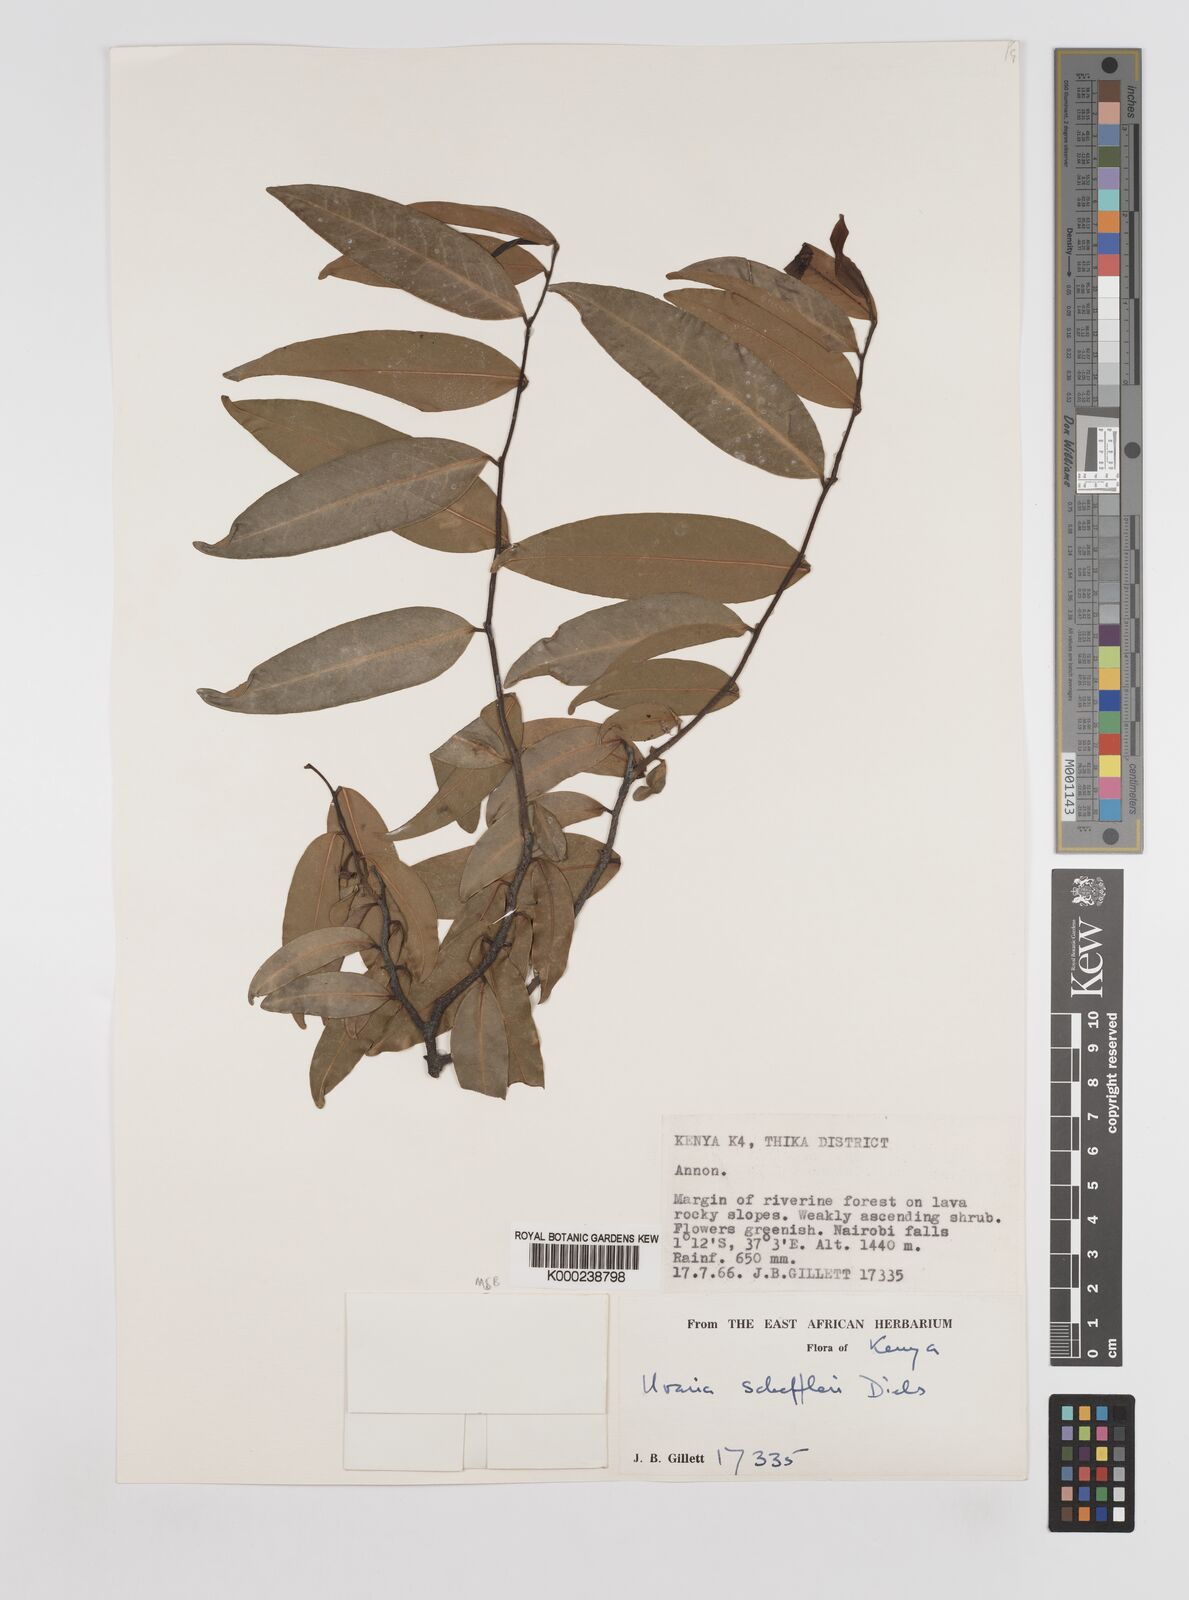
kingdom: Plantae
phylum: Tracheophyta
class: Magnoliopsida
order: Magnoliales
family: Annonaceae
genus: Uvaria
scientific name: Uvaria scheffleri
